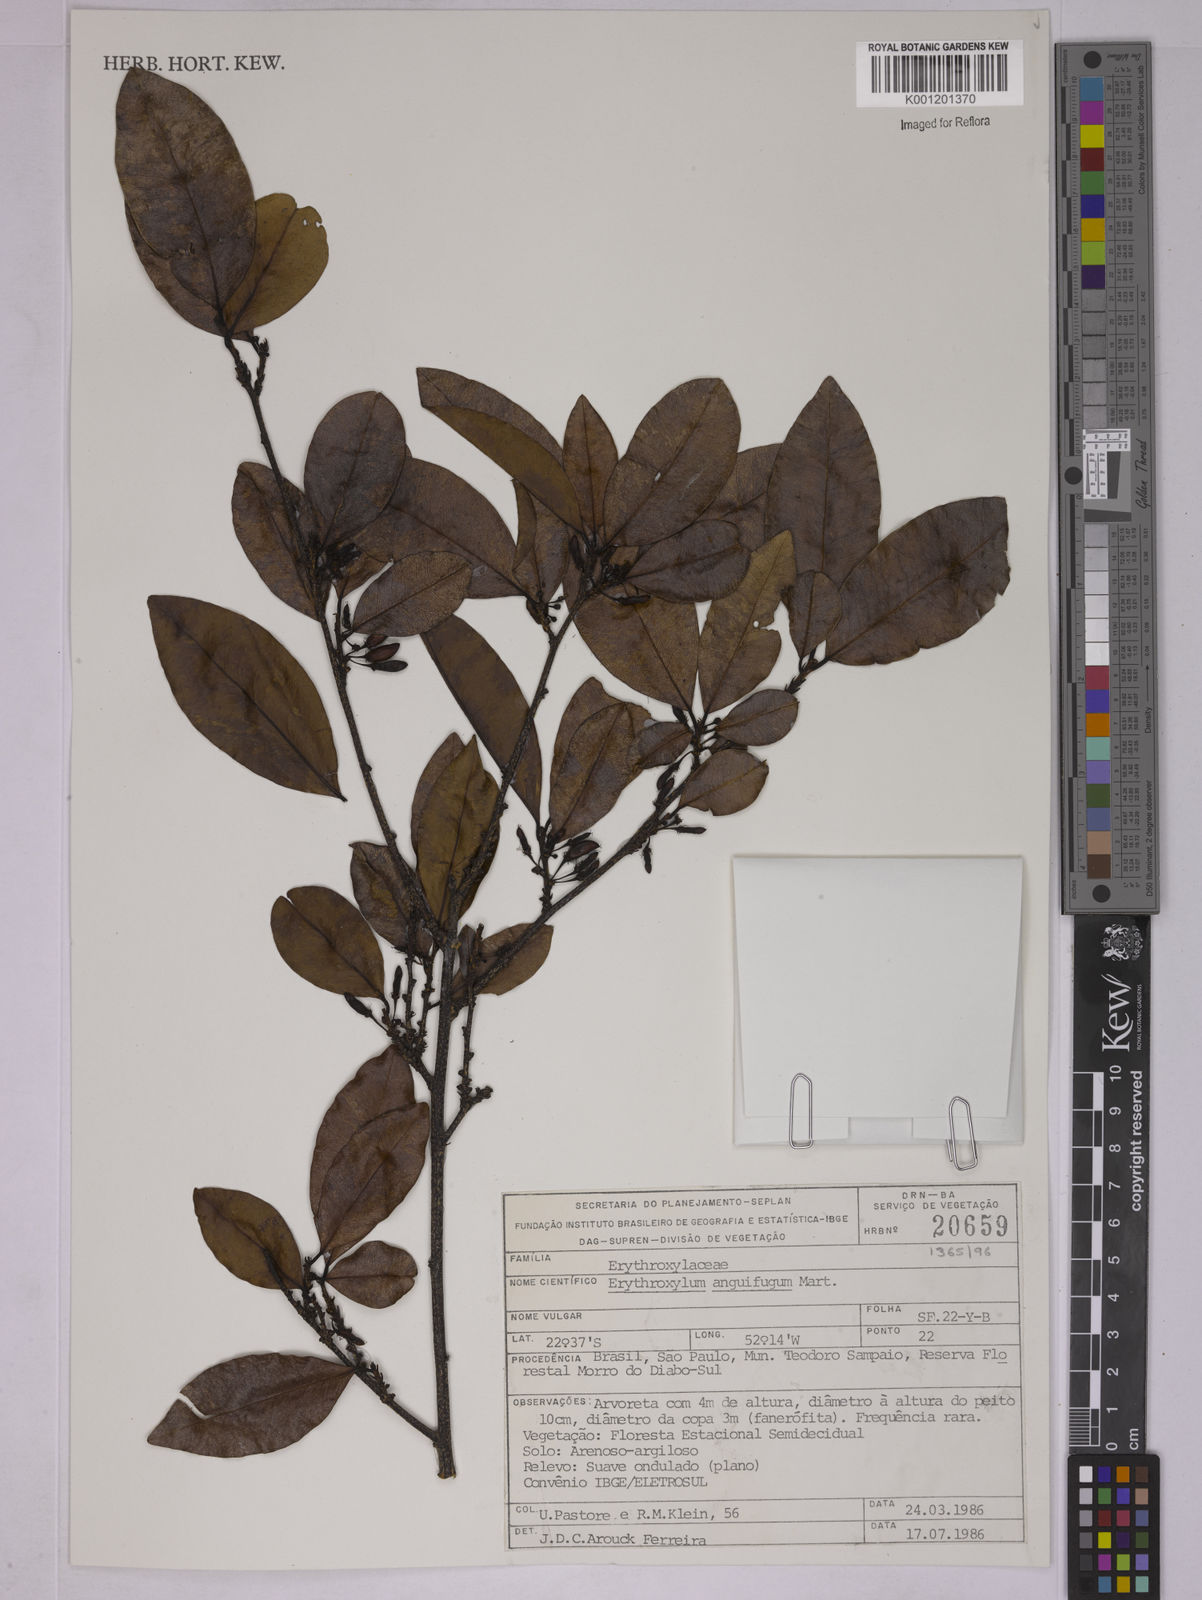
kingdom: Plantae
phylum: Tracheophyta
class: Magnoliopsida
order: Malpighiales
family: Erythroxylaceae
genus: Erythroxylum
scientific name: Erythroxylum anguifugum
